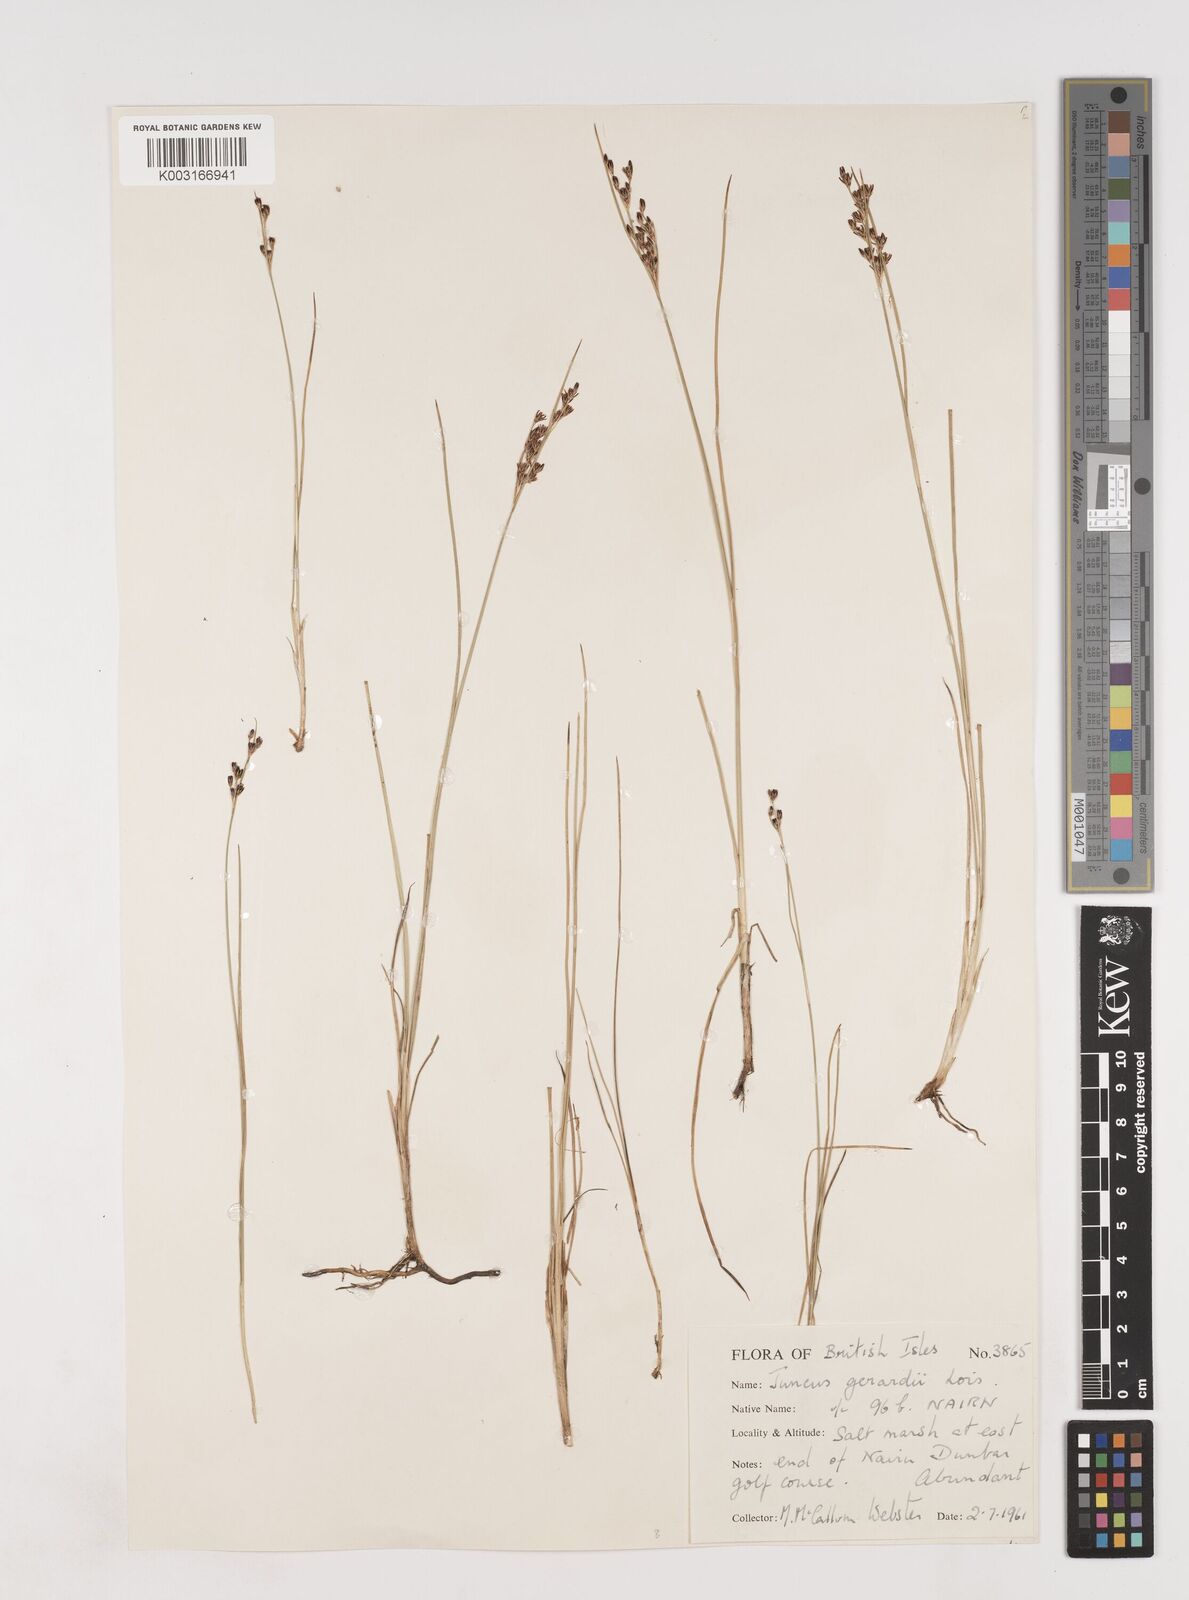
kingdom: Plantae
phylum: Tracheophyta
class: Liliopsida
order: Poales
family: Juncaceae
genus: Juncus
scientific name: Juncus gerardi
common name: Saltmarsh rush
